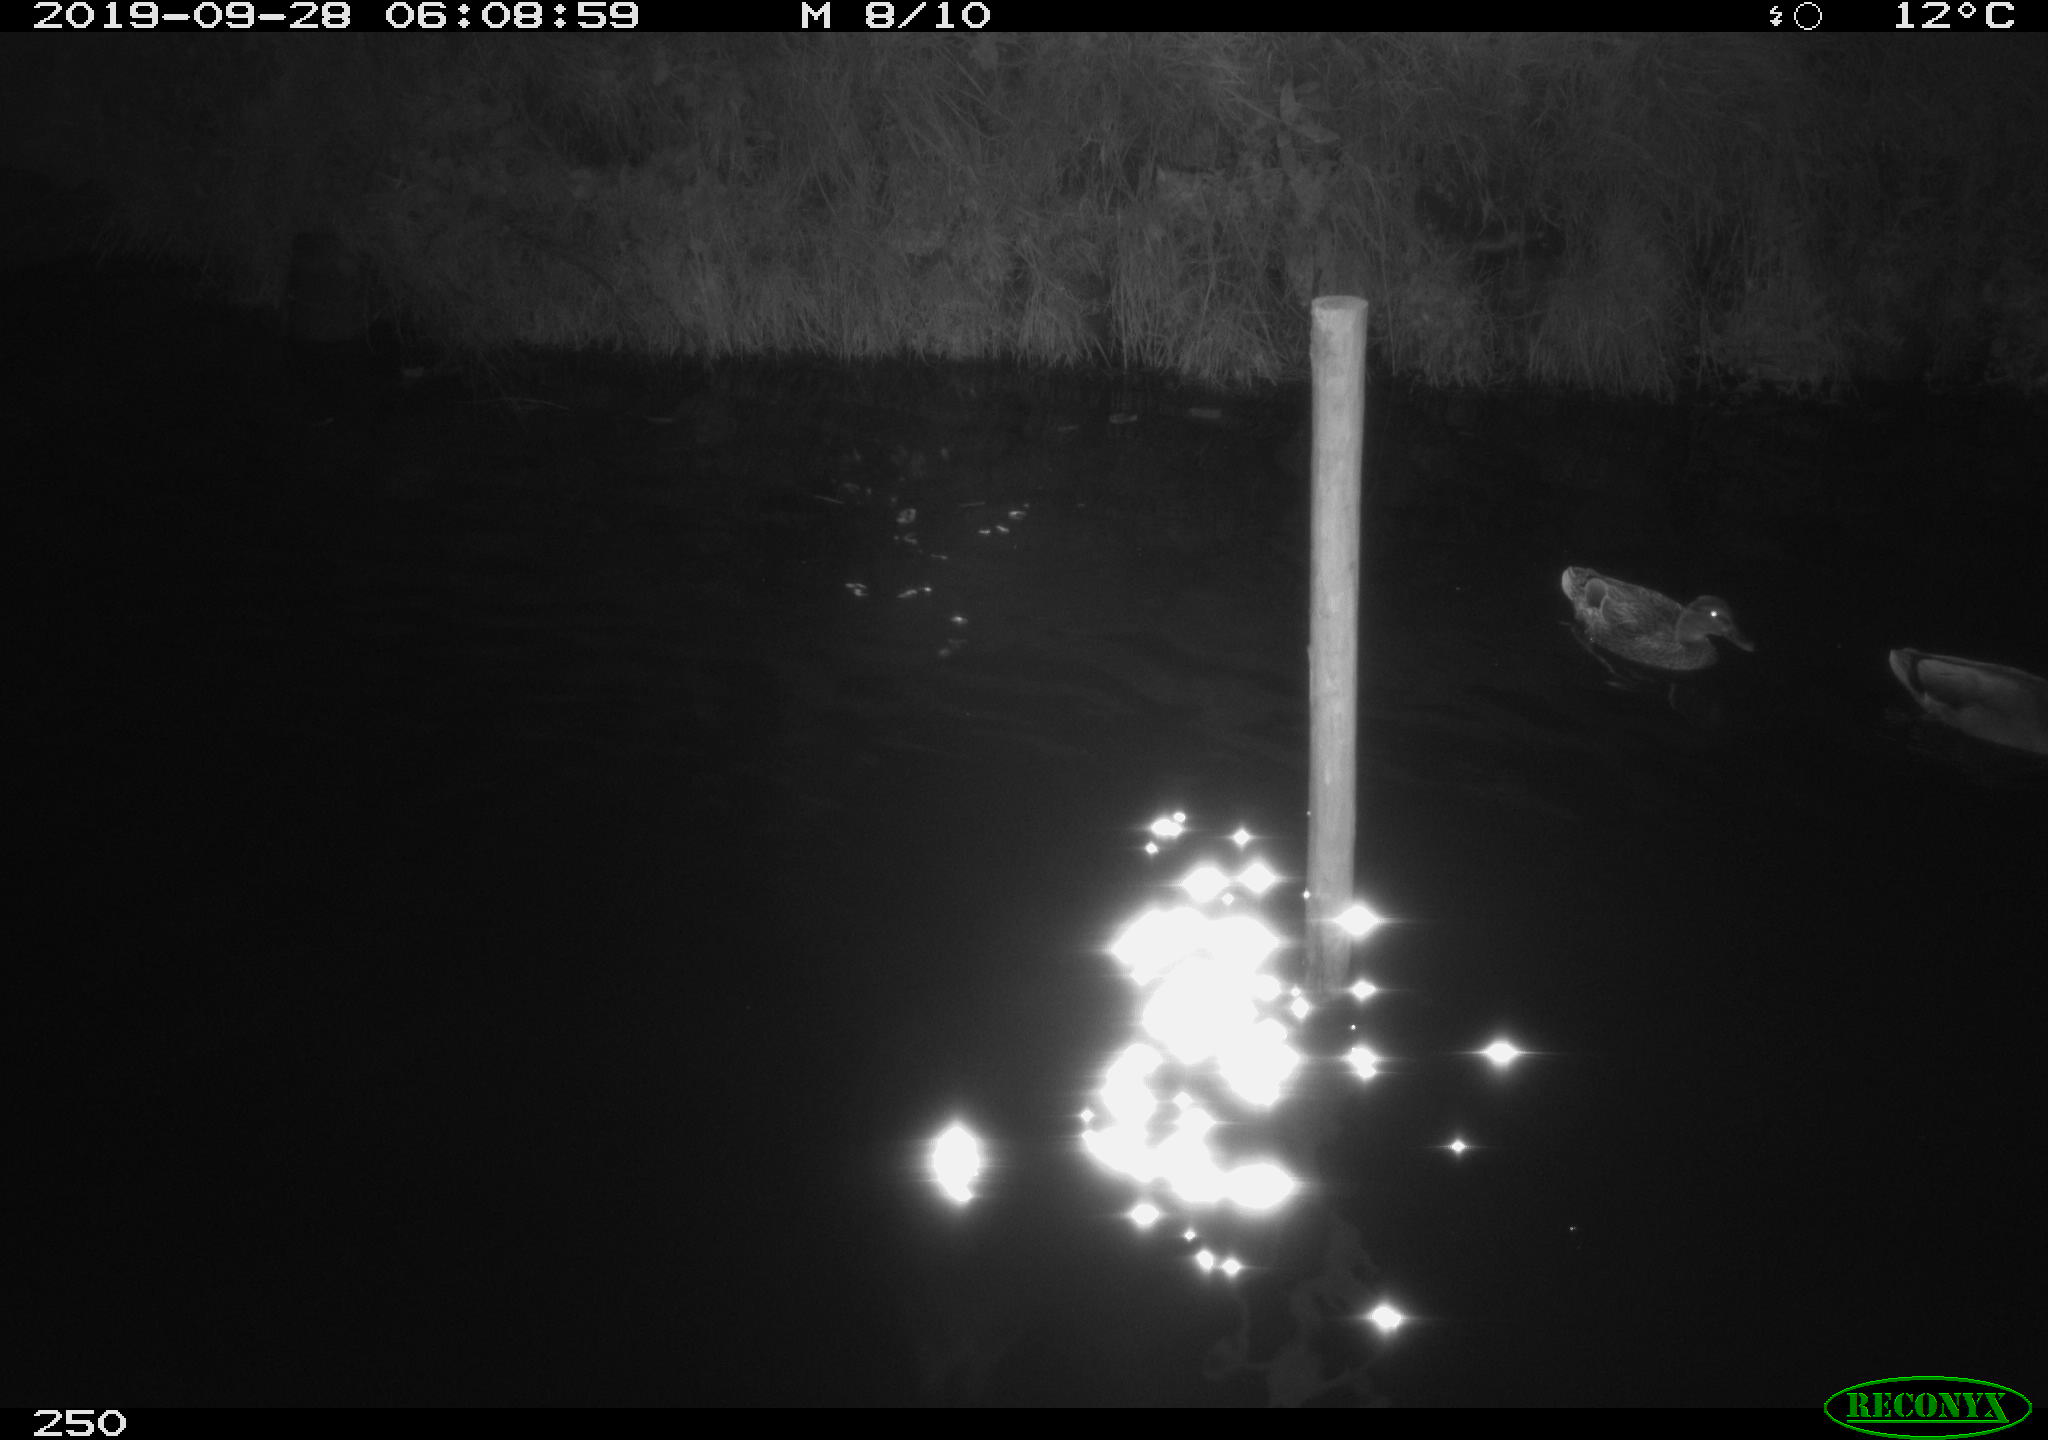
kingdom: Animalia
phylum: Chordata
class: Aves
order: Anseriformes
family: Anatidae
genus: Anas
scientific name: Anas platyrhynchos
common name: Mallard
